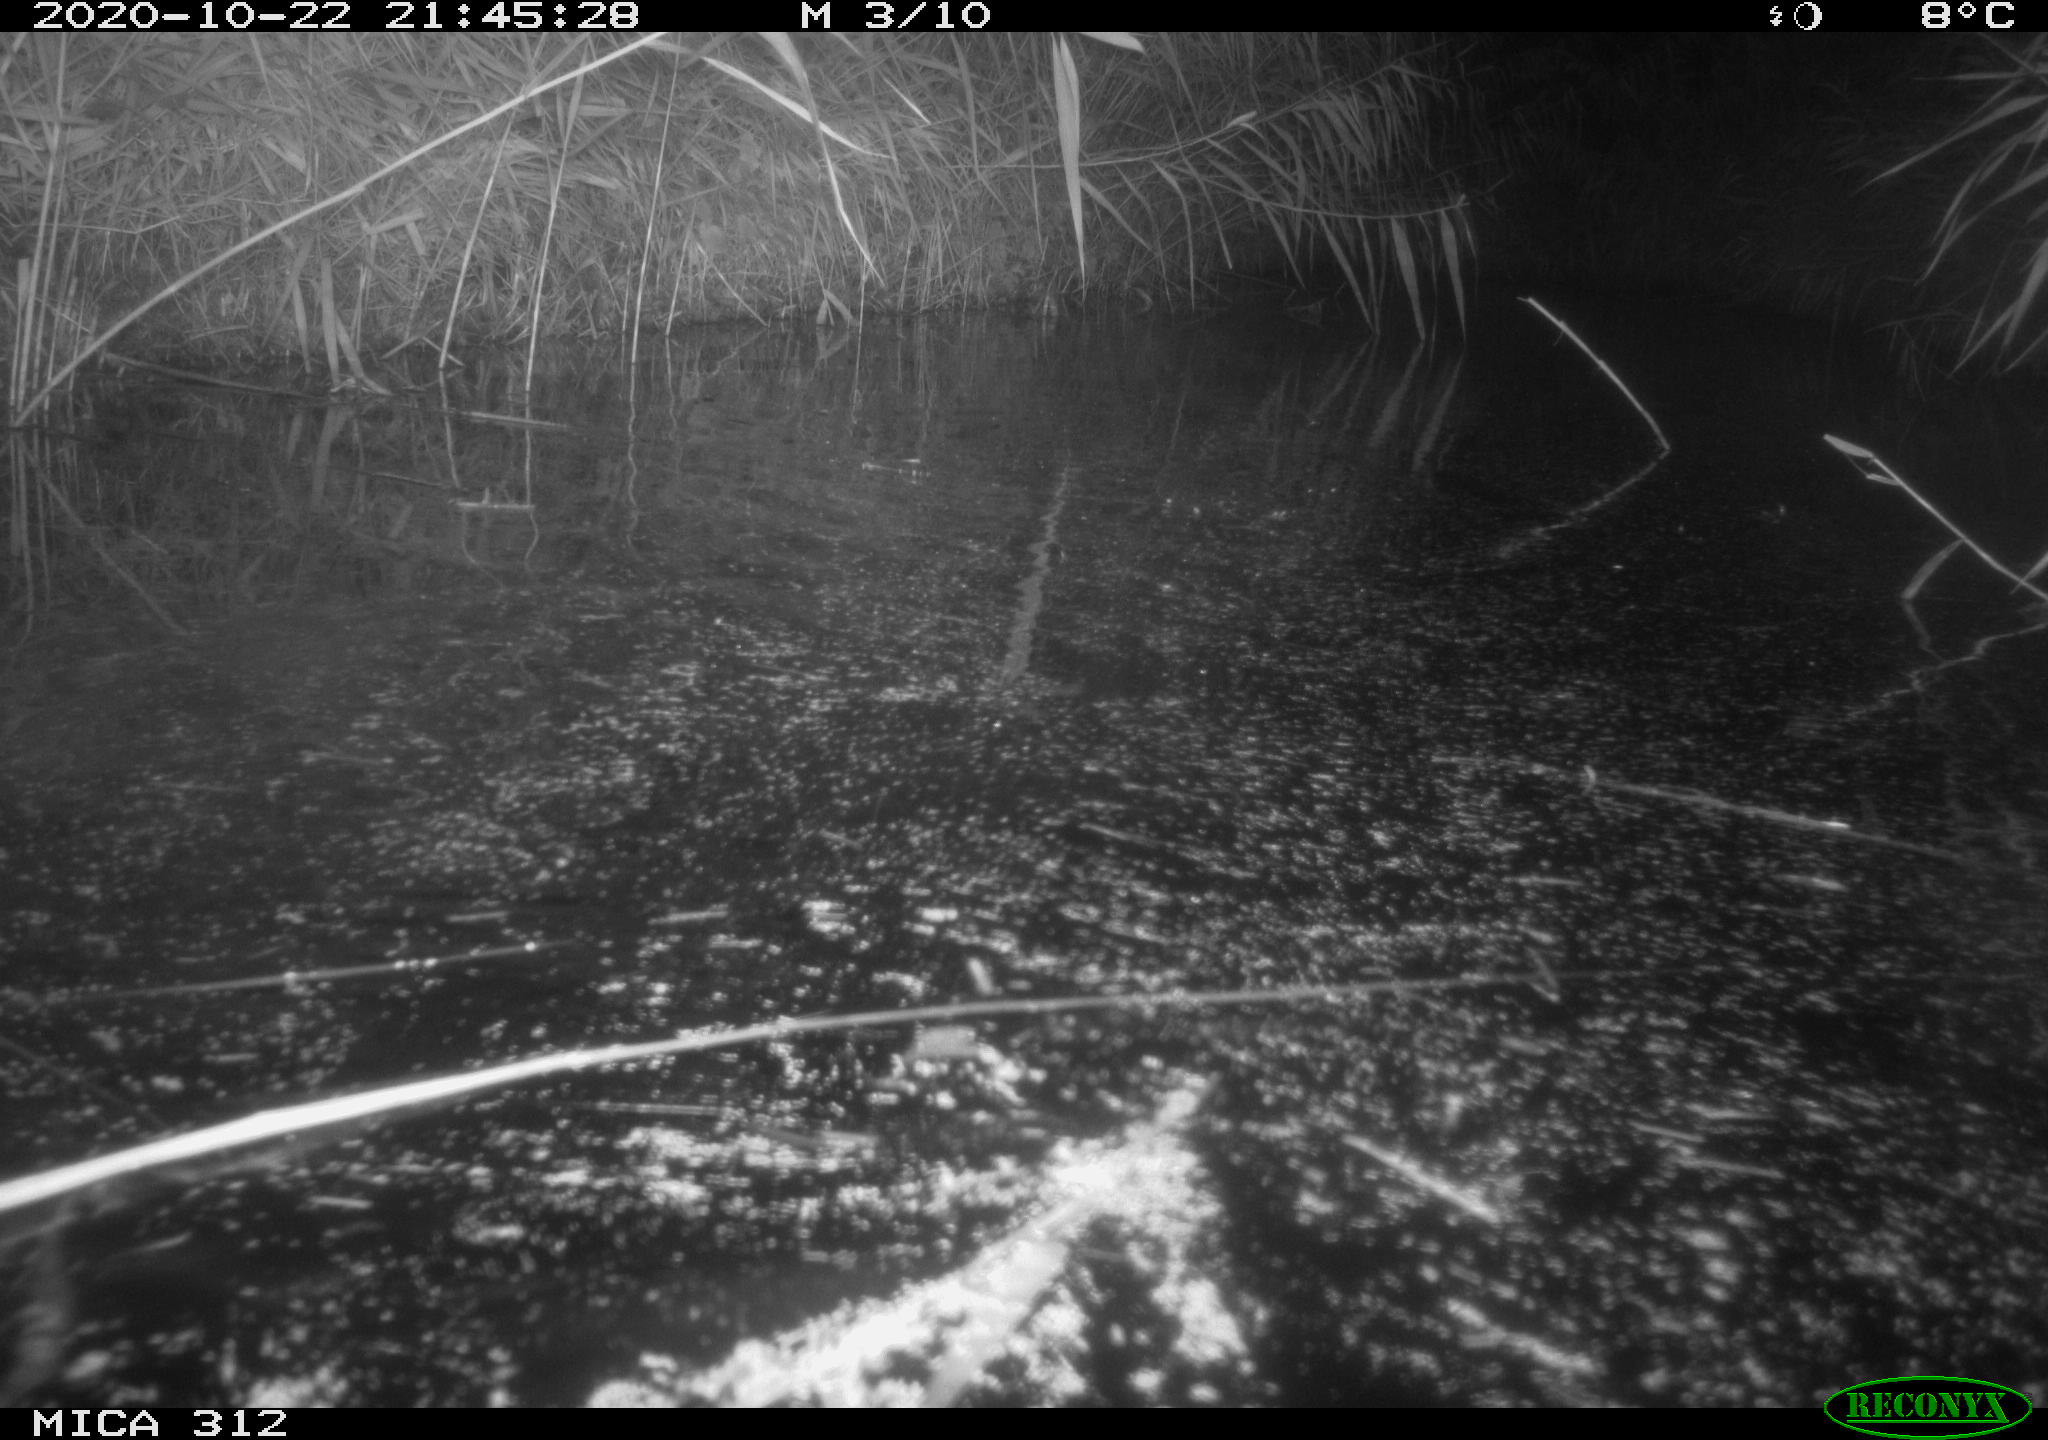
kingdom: Animalia
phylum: Chordata
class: Mammalia
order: Rodentia
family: Muridae
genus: Rattus
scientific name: Rattus norvegicus
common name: Brown rat
